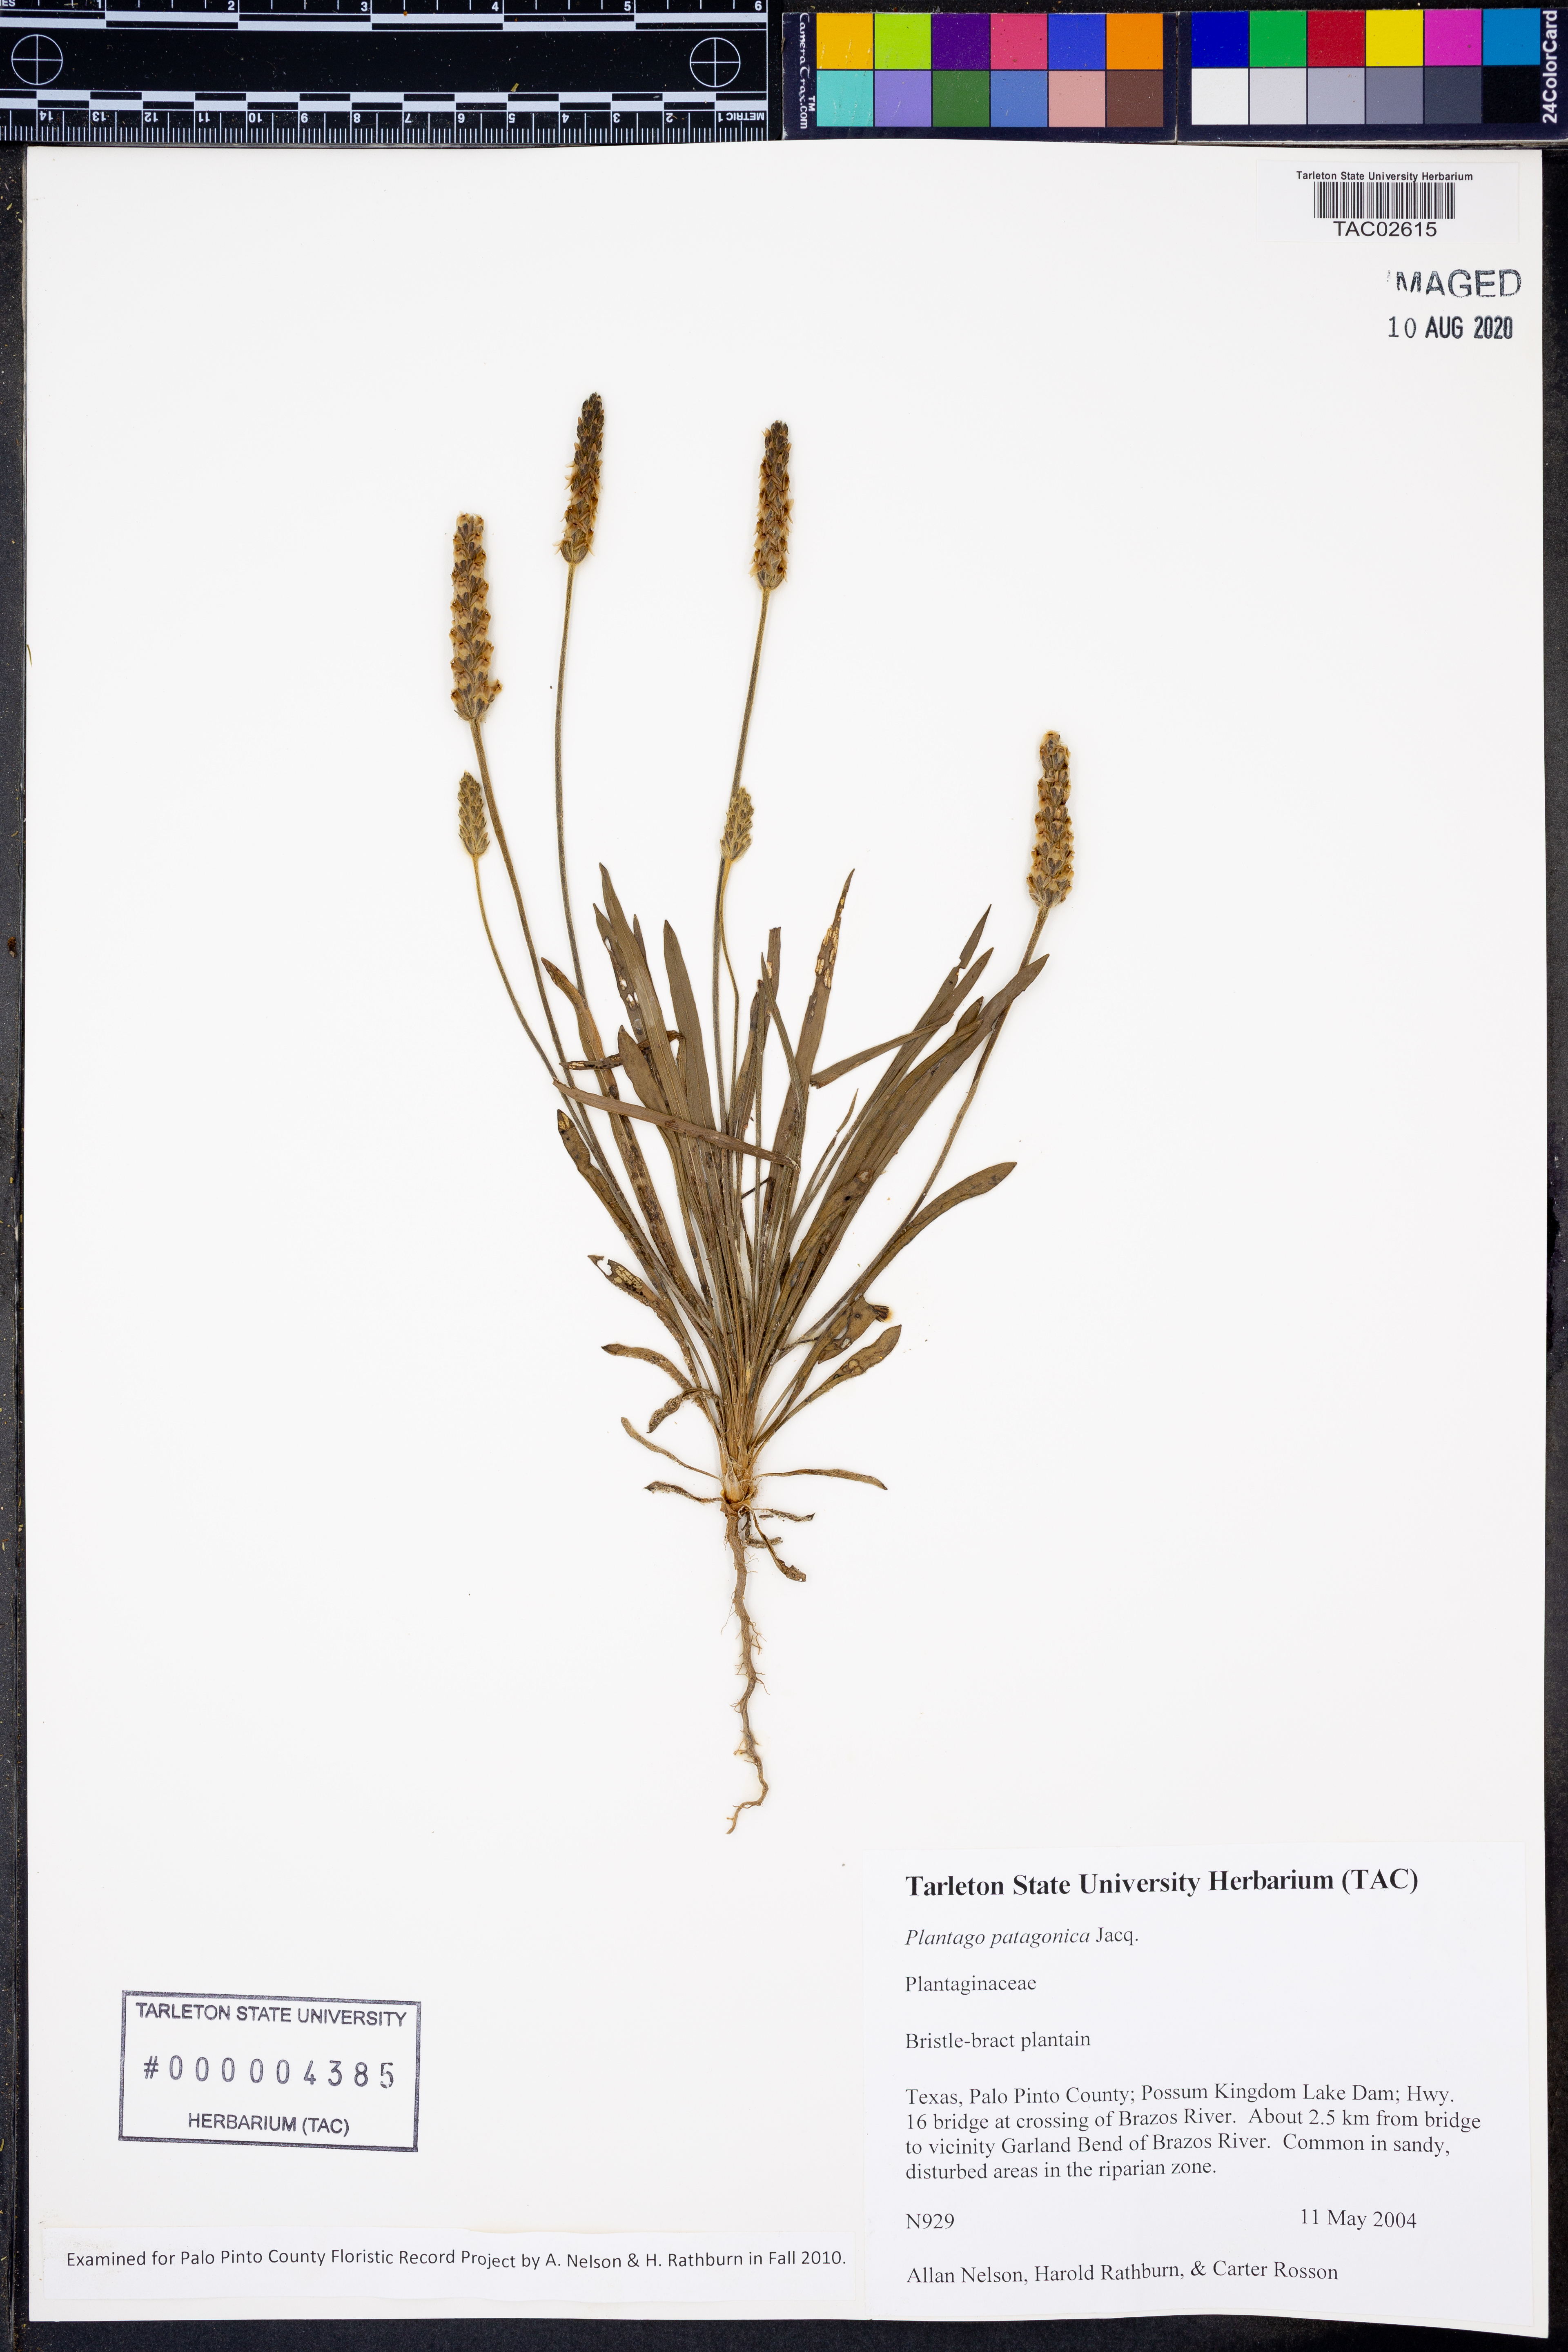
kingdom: Plantae
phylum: Tracheophyta
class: Magnoliopsida
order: Lamiales
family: Plantaginaceae
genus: Plantago
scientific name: Plantago patagonica
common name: Patagonia indian-wheat
